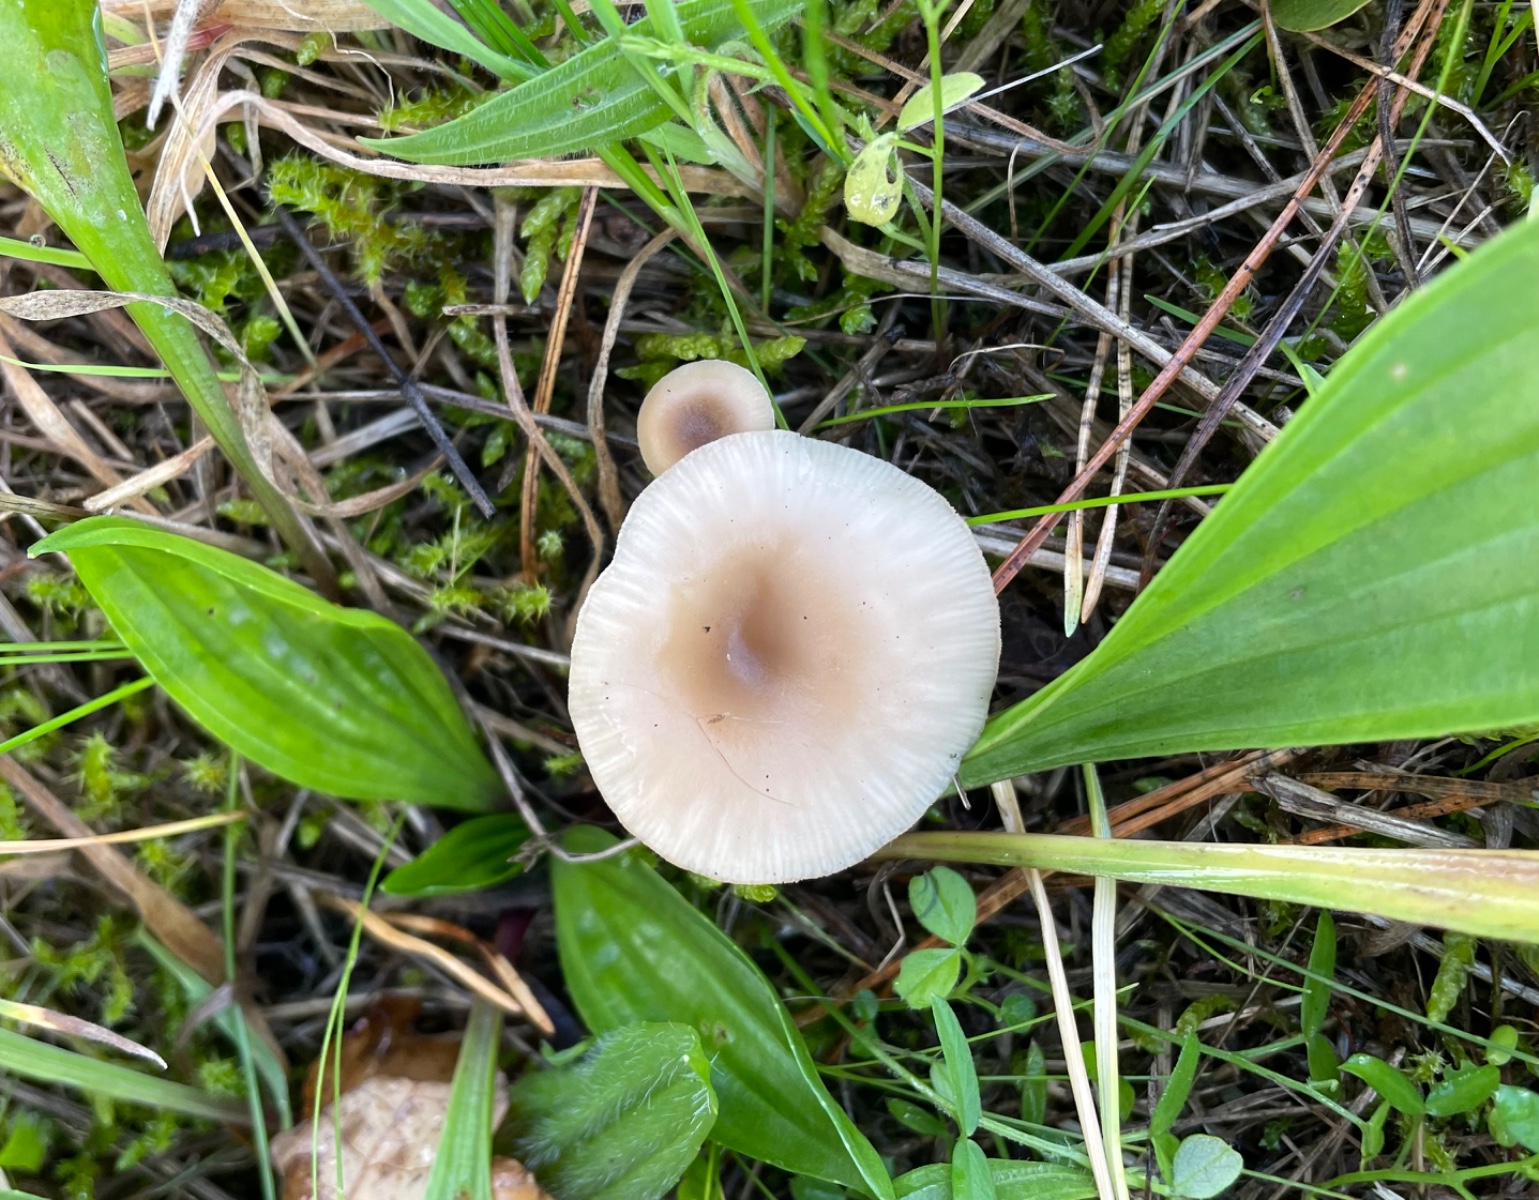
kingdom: Fungi
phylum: Basidiomycota
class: Agaricomycetes
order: Agaricales
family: Tricholomataceae
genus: Clitocybe
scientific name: Clitocybe fragrans
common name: vellugtende tragthat
